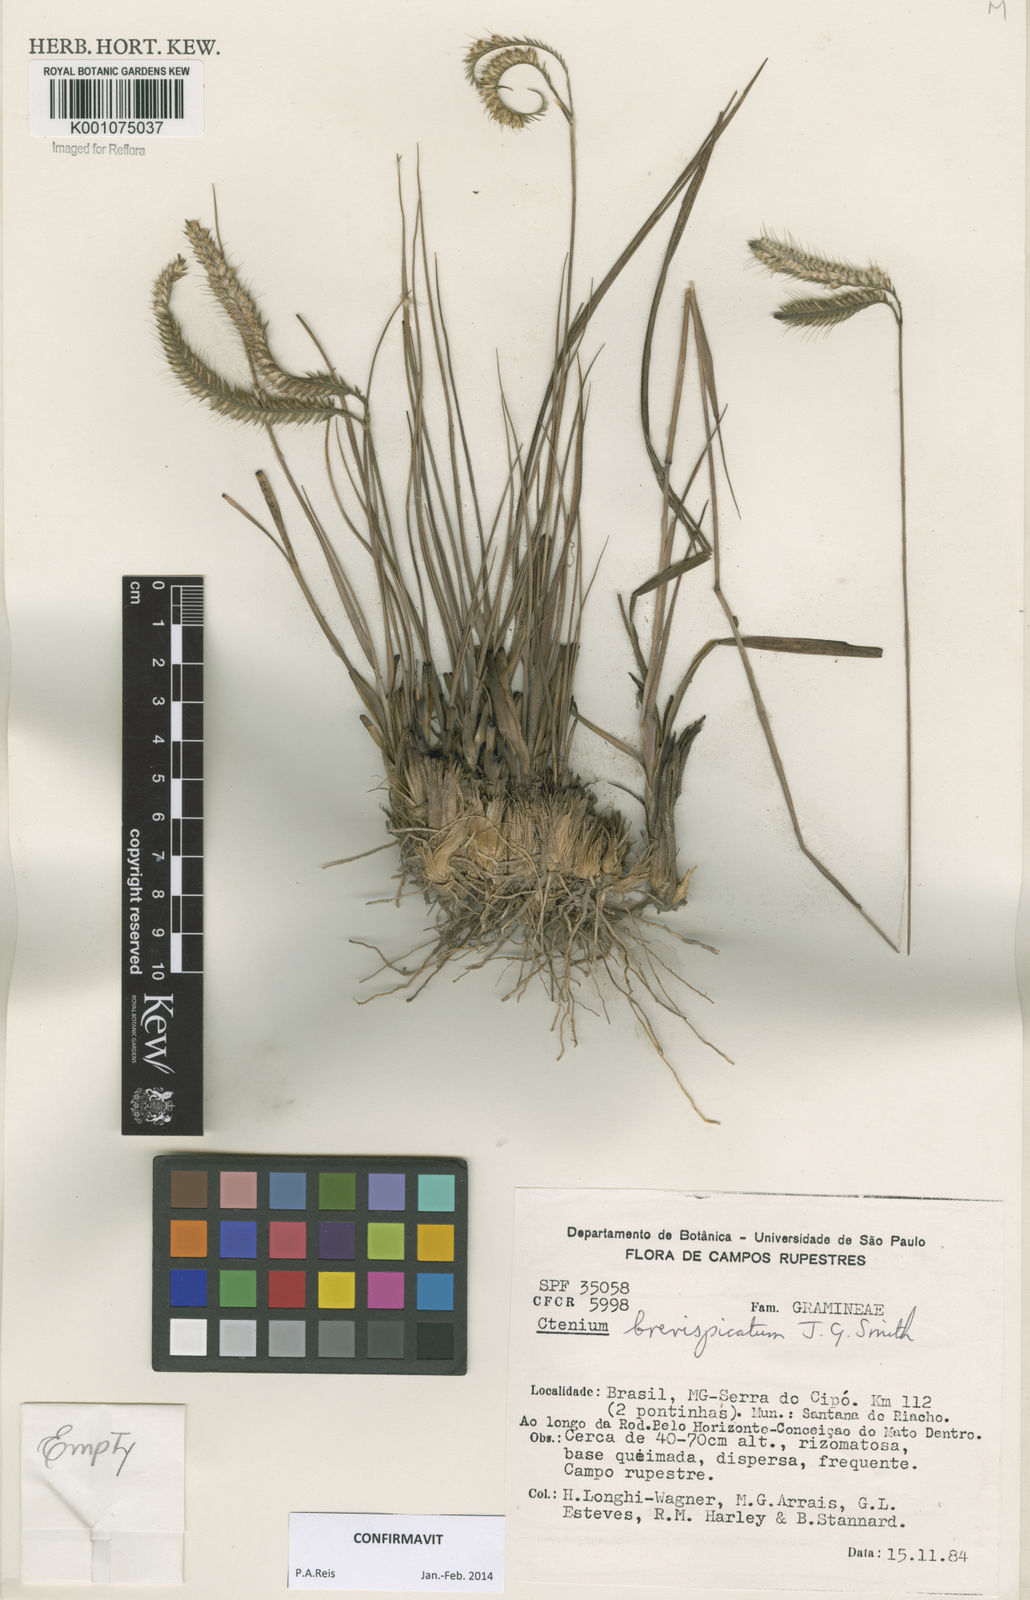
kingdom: Plantae
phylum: Tracheophyta
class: Liliopsida
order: Poales
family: Poaceae
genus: Ctenium
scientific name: Ctenium brevispicatum
